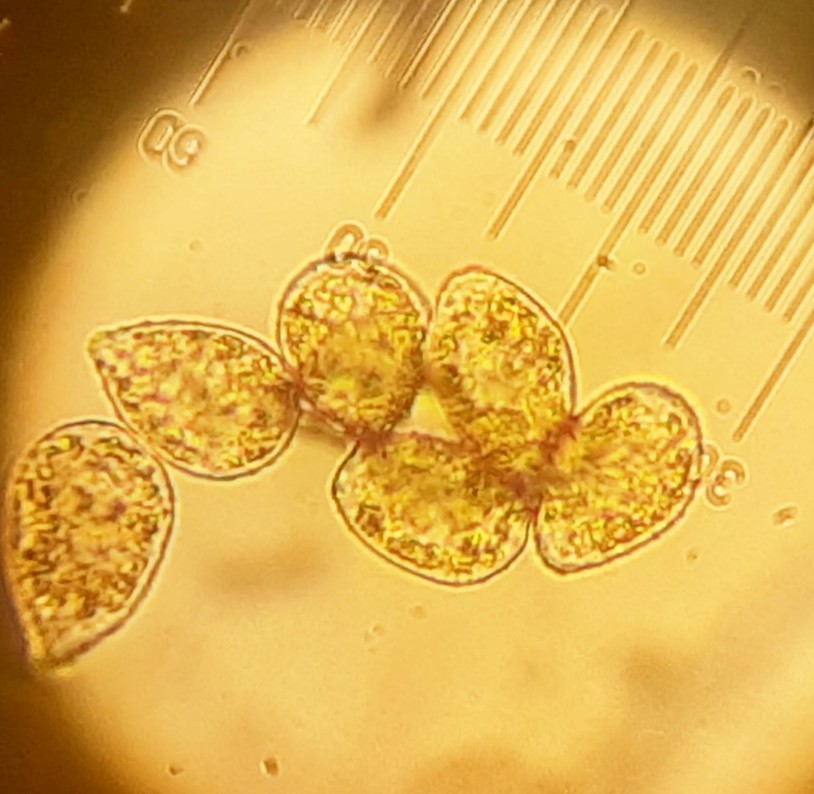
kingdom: Fungi
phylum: Basidiomycota
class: Pucciniomycetes
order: Pucciniales
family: Pucciniastraceae
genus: Pucciniastrum
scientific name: Pucciniastrum epilobii
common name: dueurt-nålerust
